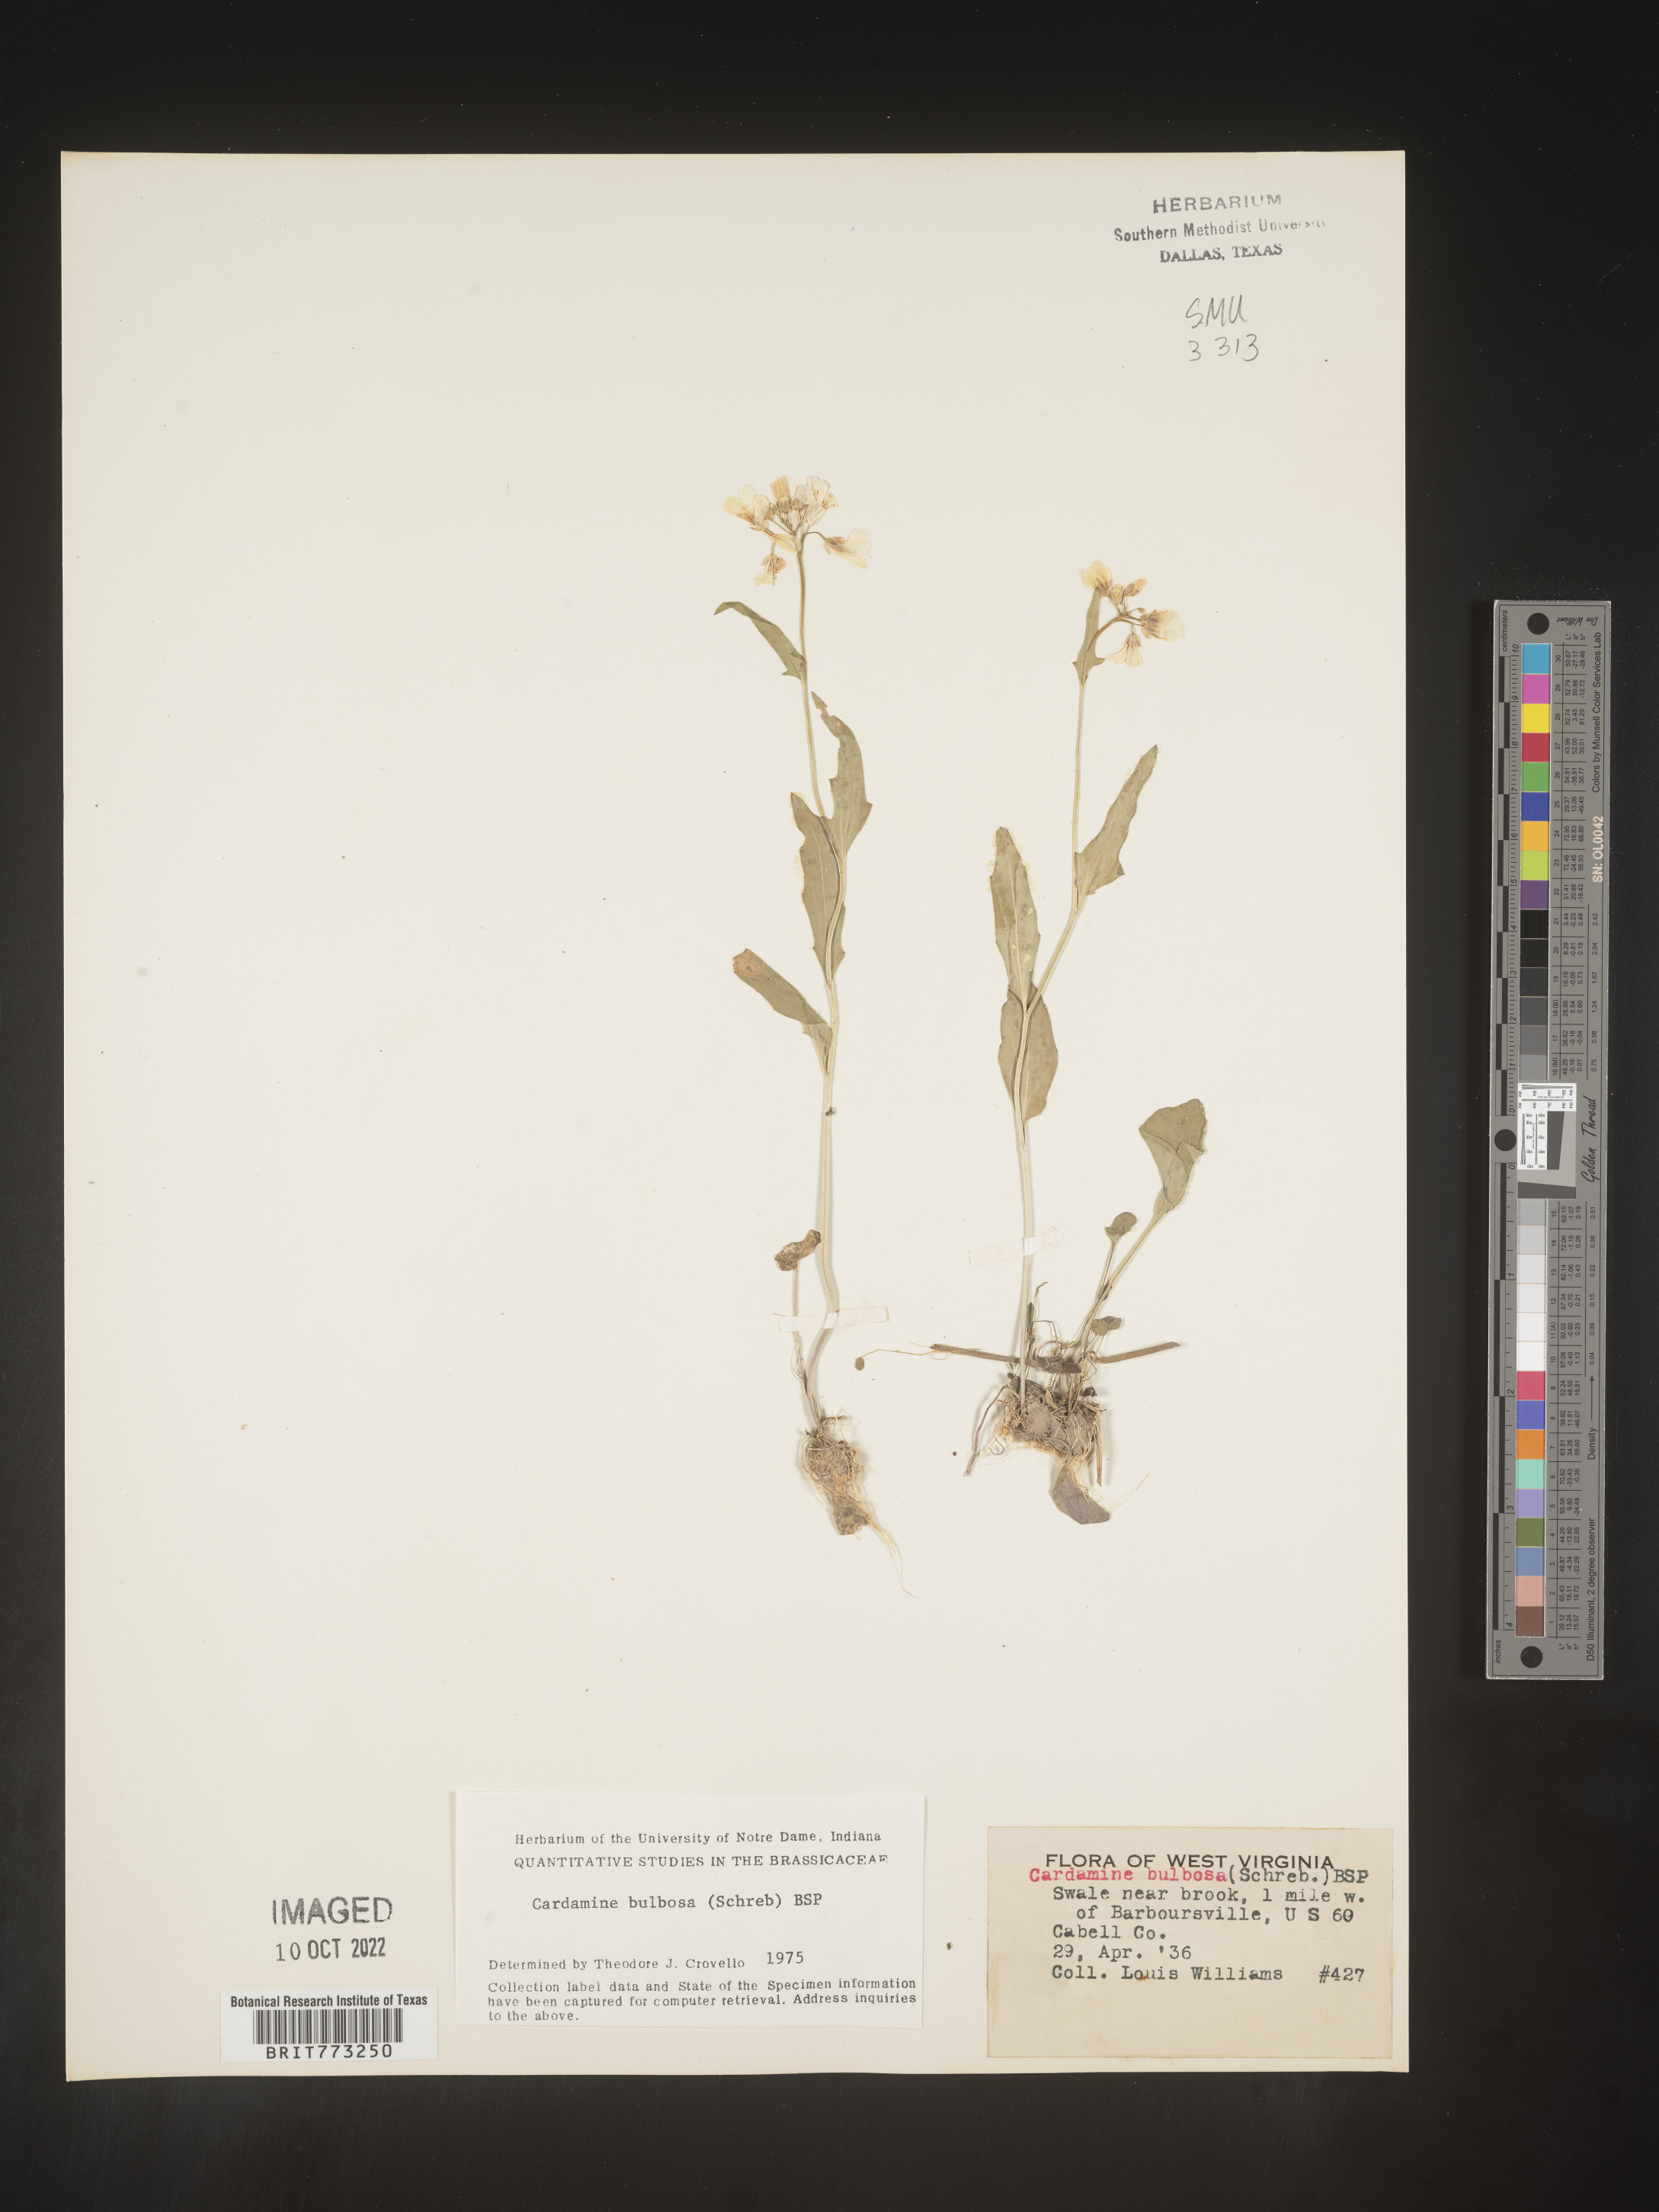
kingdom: Plantae
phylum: Tracheophyta
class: Magnoliopsida
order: Brassicales
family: Brassicaceae
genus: Cardamine
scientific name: Cardamine bulbosa
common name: Spring cress
